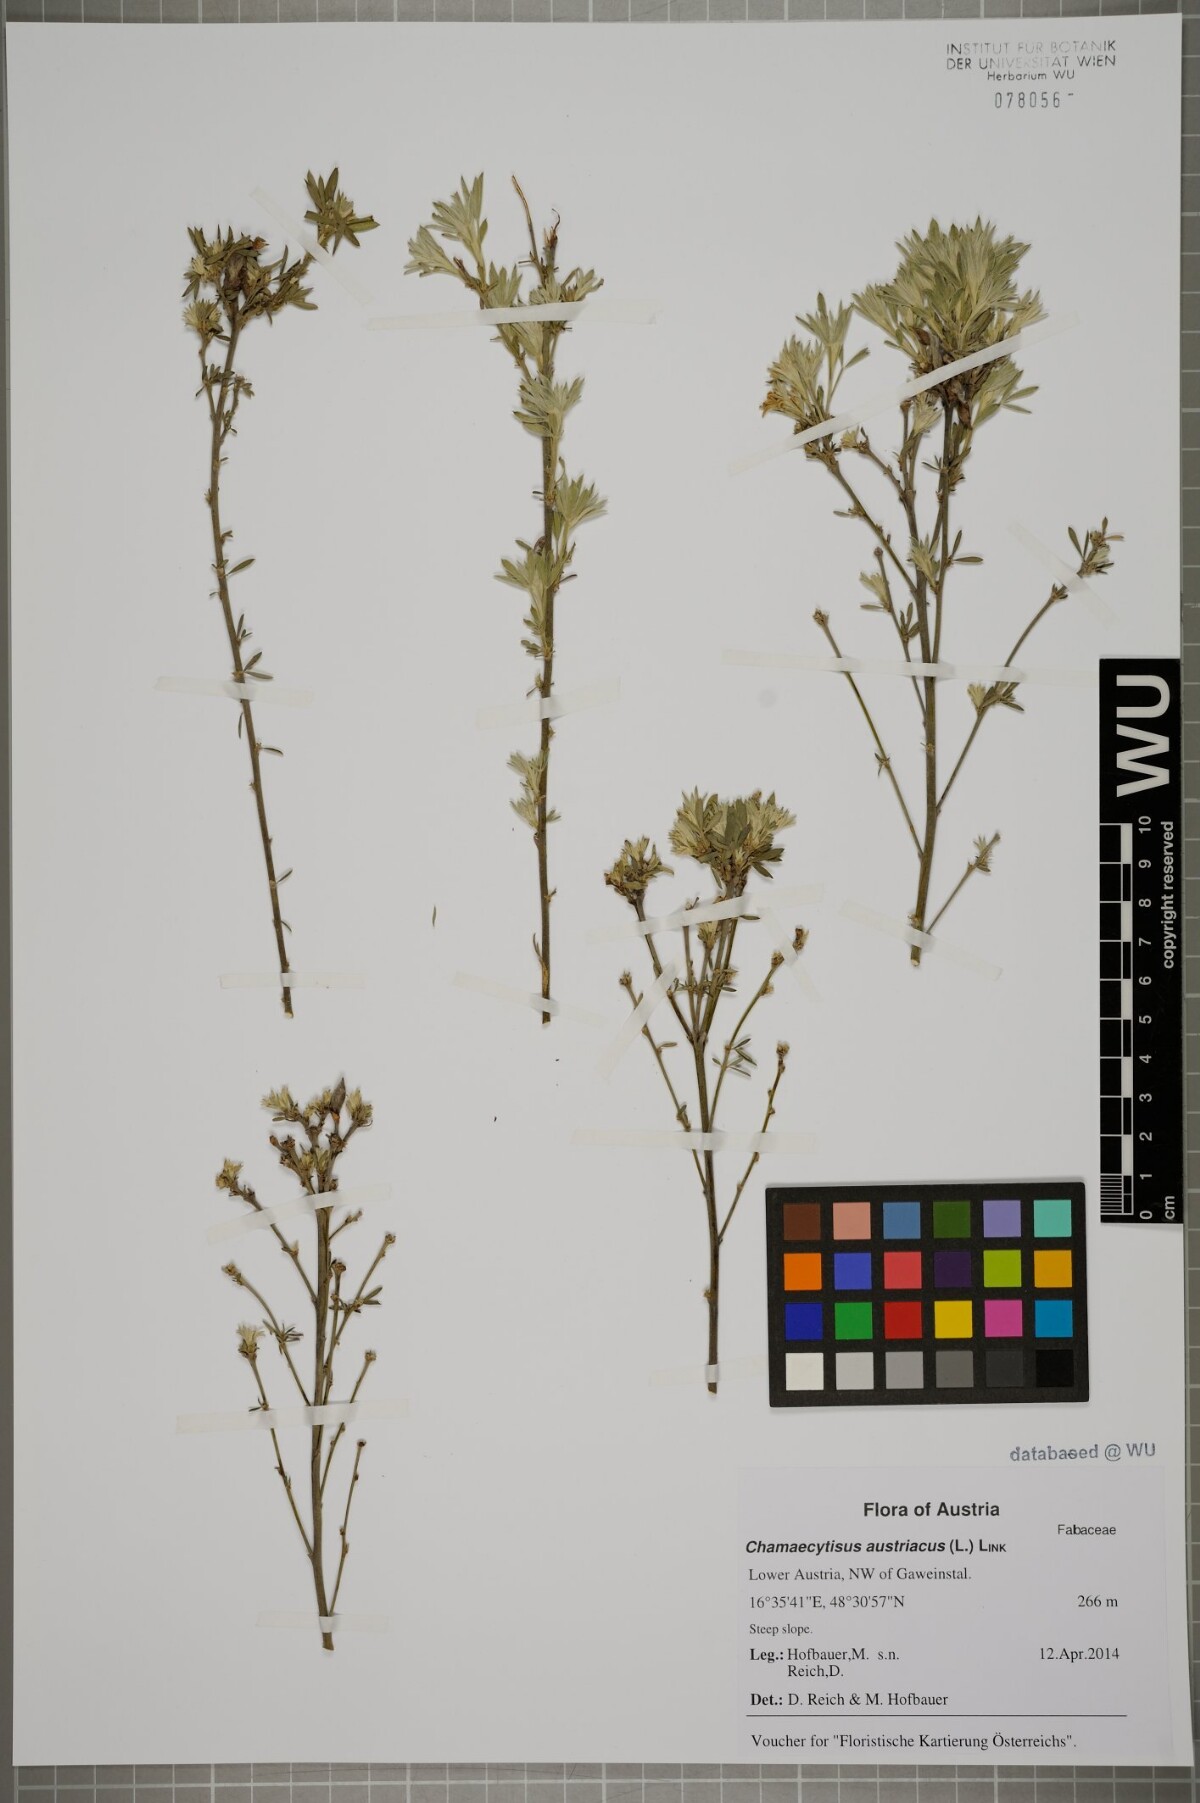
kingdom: Plantae
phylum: Tracheophyta
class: Magnoliopsida
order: Fabales
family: Fabaceae
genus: Chamaecytisus
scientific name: Chamaecytisus austriacus
